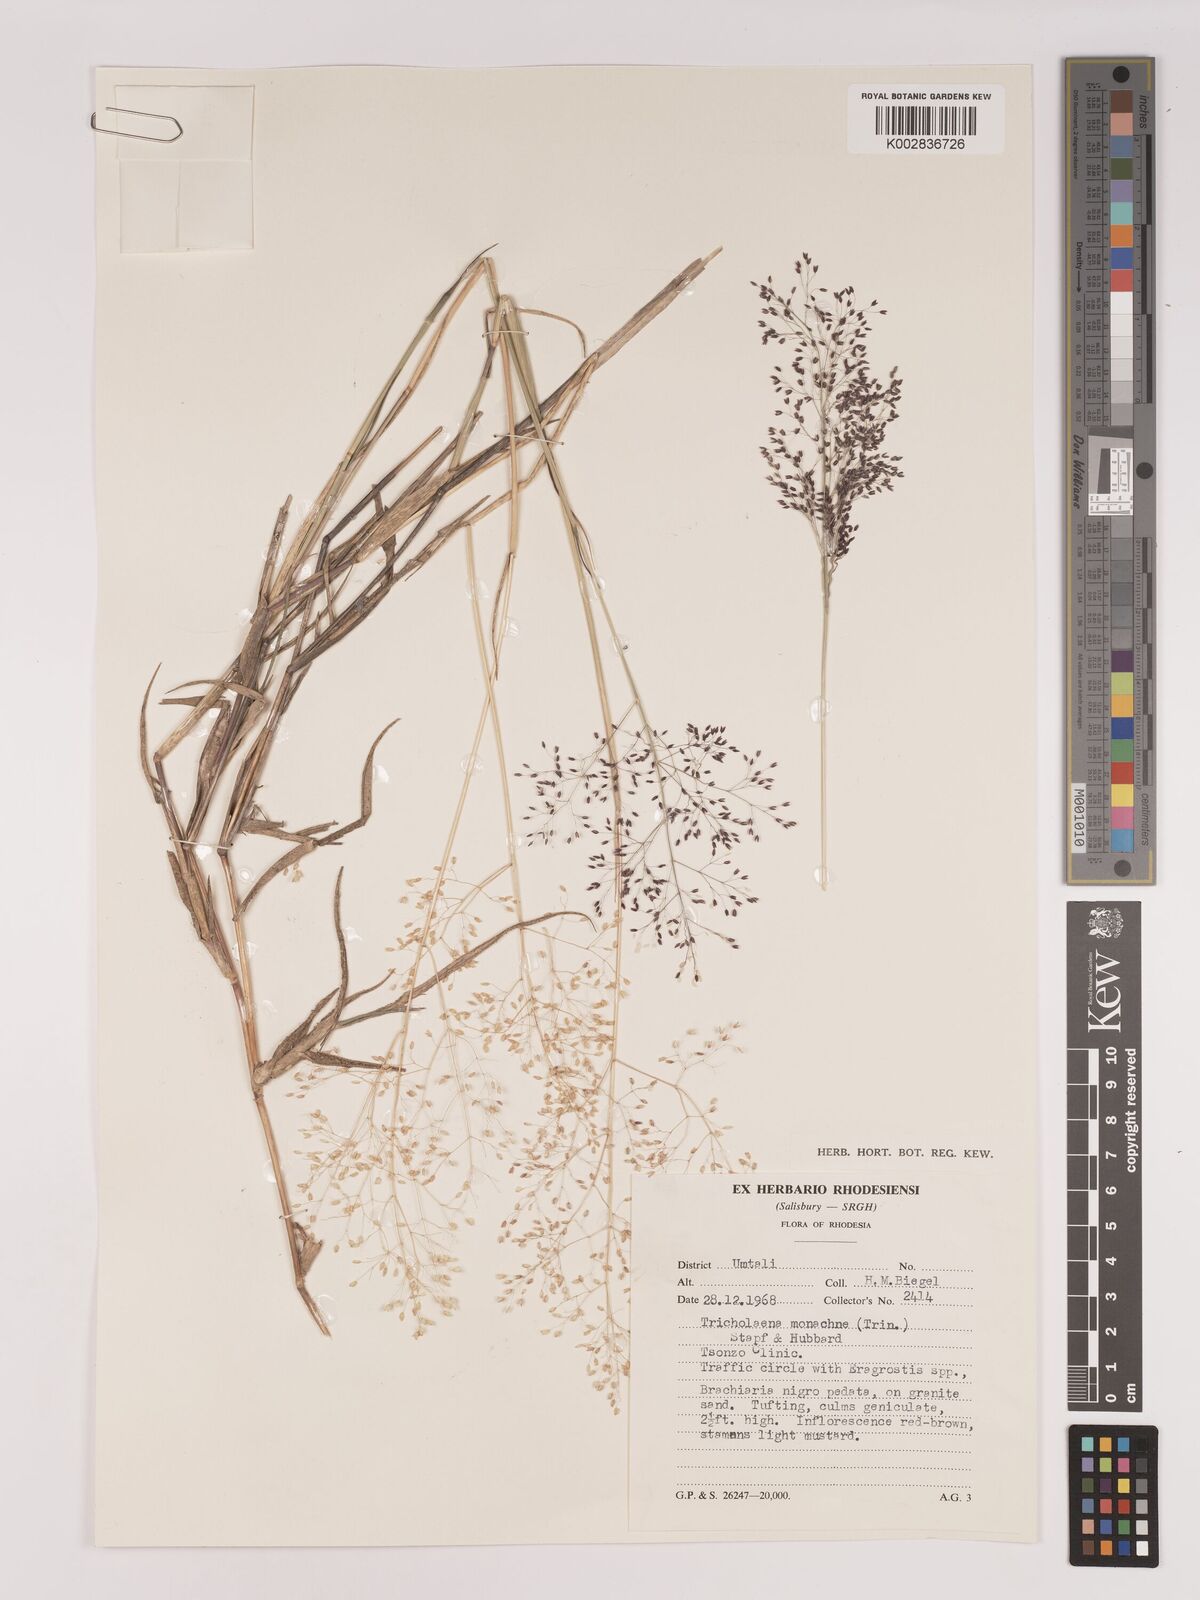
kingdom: Plantae
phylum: Tracheophyta
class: Liliopsida
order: Poales
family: Poaceae
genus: Tricholaena
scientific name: Tricholaena monachne
